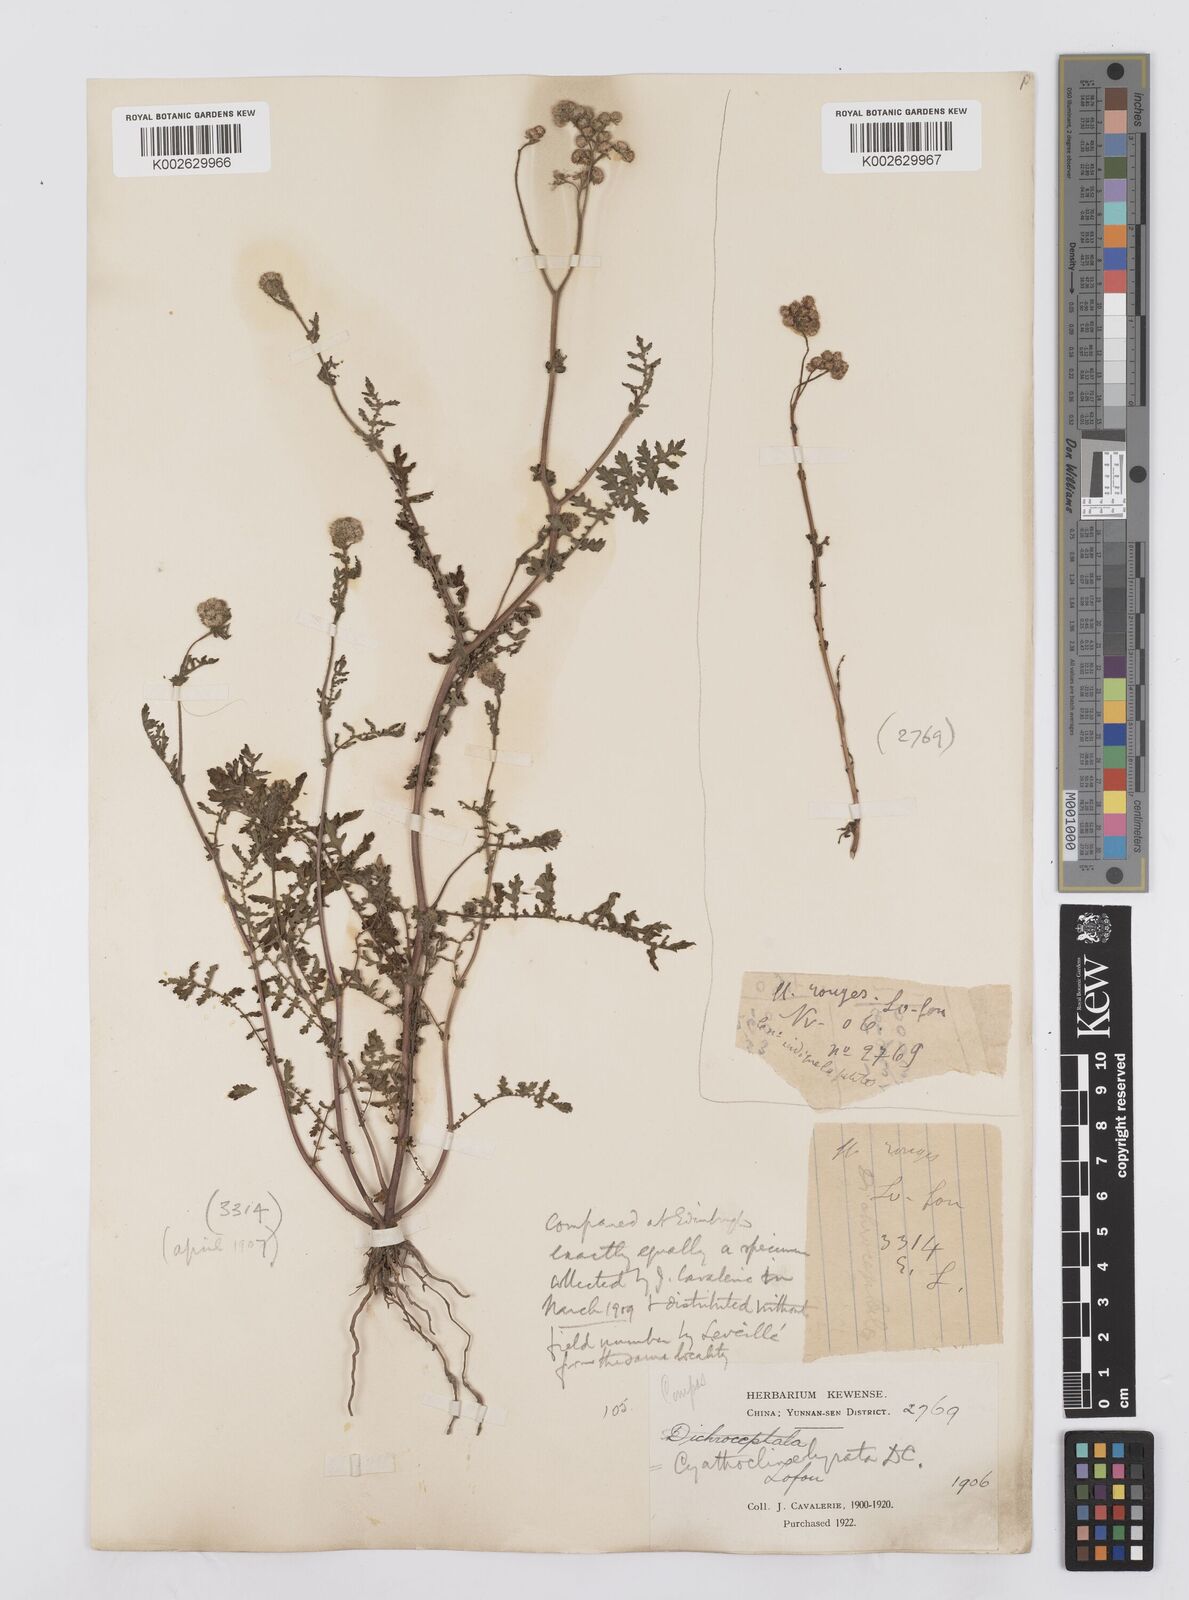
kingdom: Plantae
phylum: Tracheophyta
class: Magnoliopsida
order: Asterales
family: Asteraceae
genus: Cyathocline
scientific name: Cyathocline purpurea
